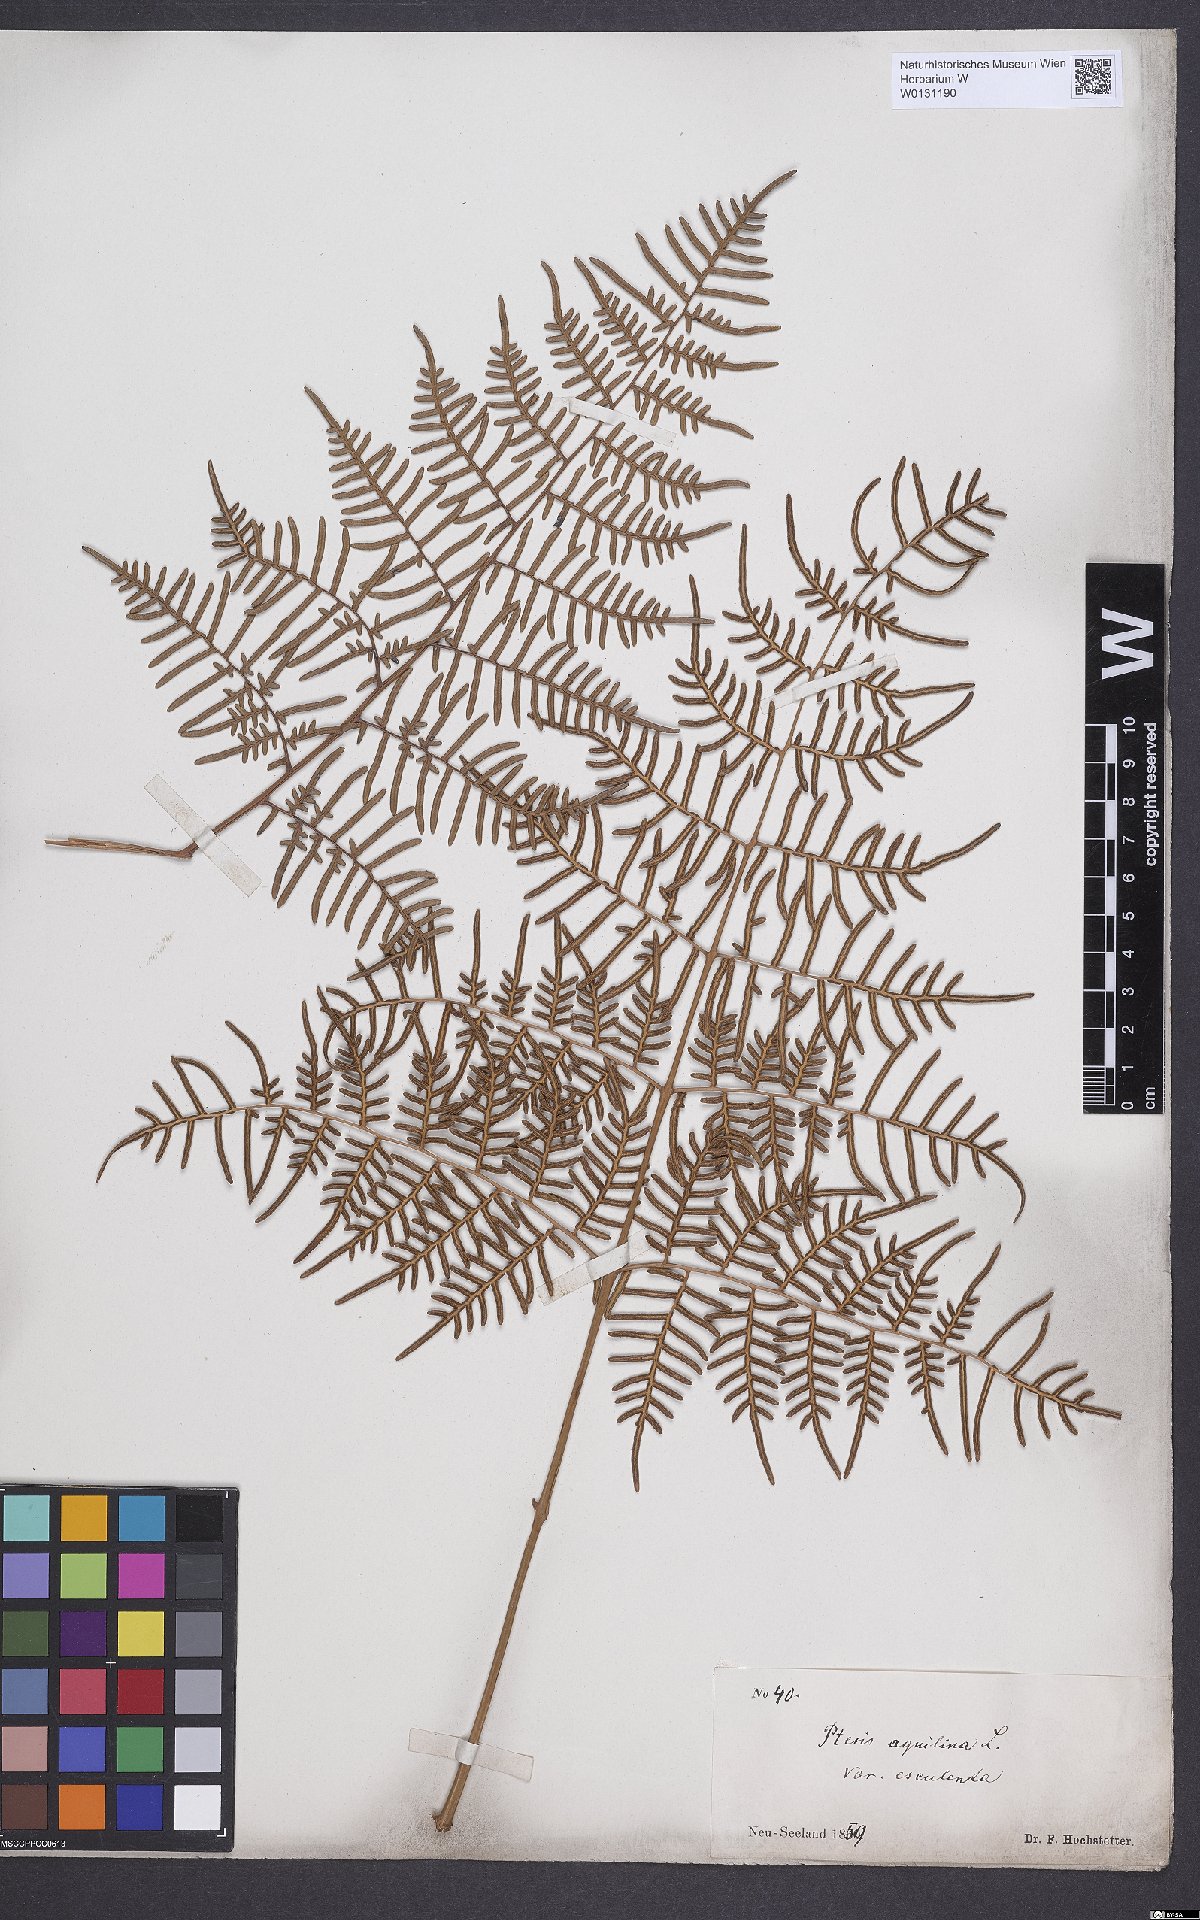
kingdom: Plantae
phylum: Tracheophyta
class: Polypodiopsida
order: Polypodiales
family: Dennstaedtiaceae
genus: Pteridium
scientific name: Pteridium esculentum
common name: Bracken fern
